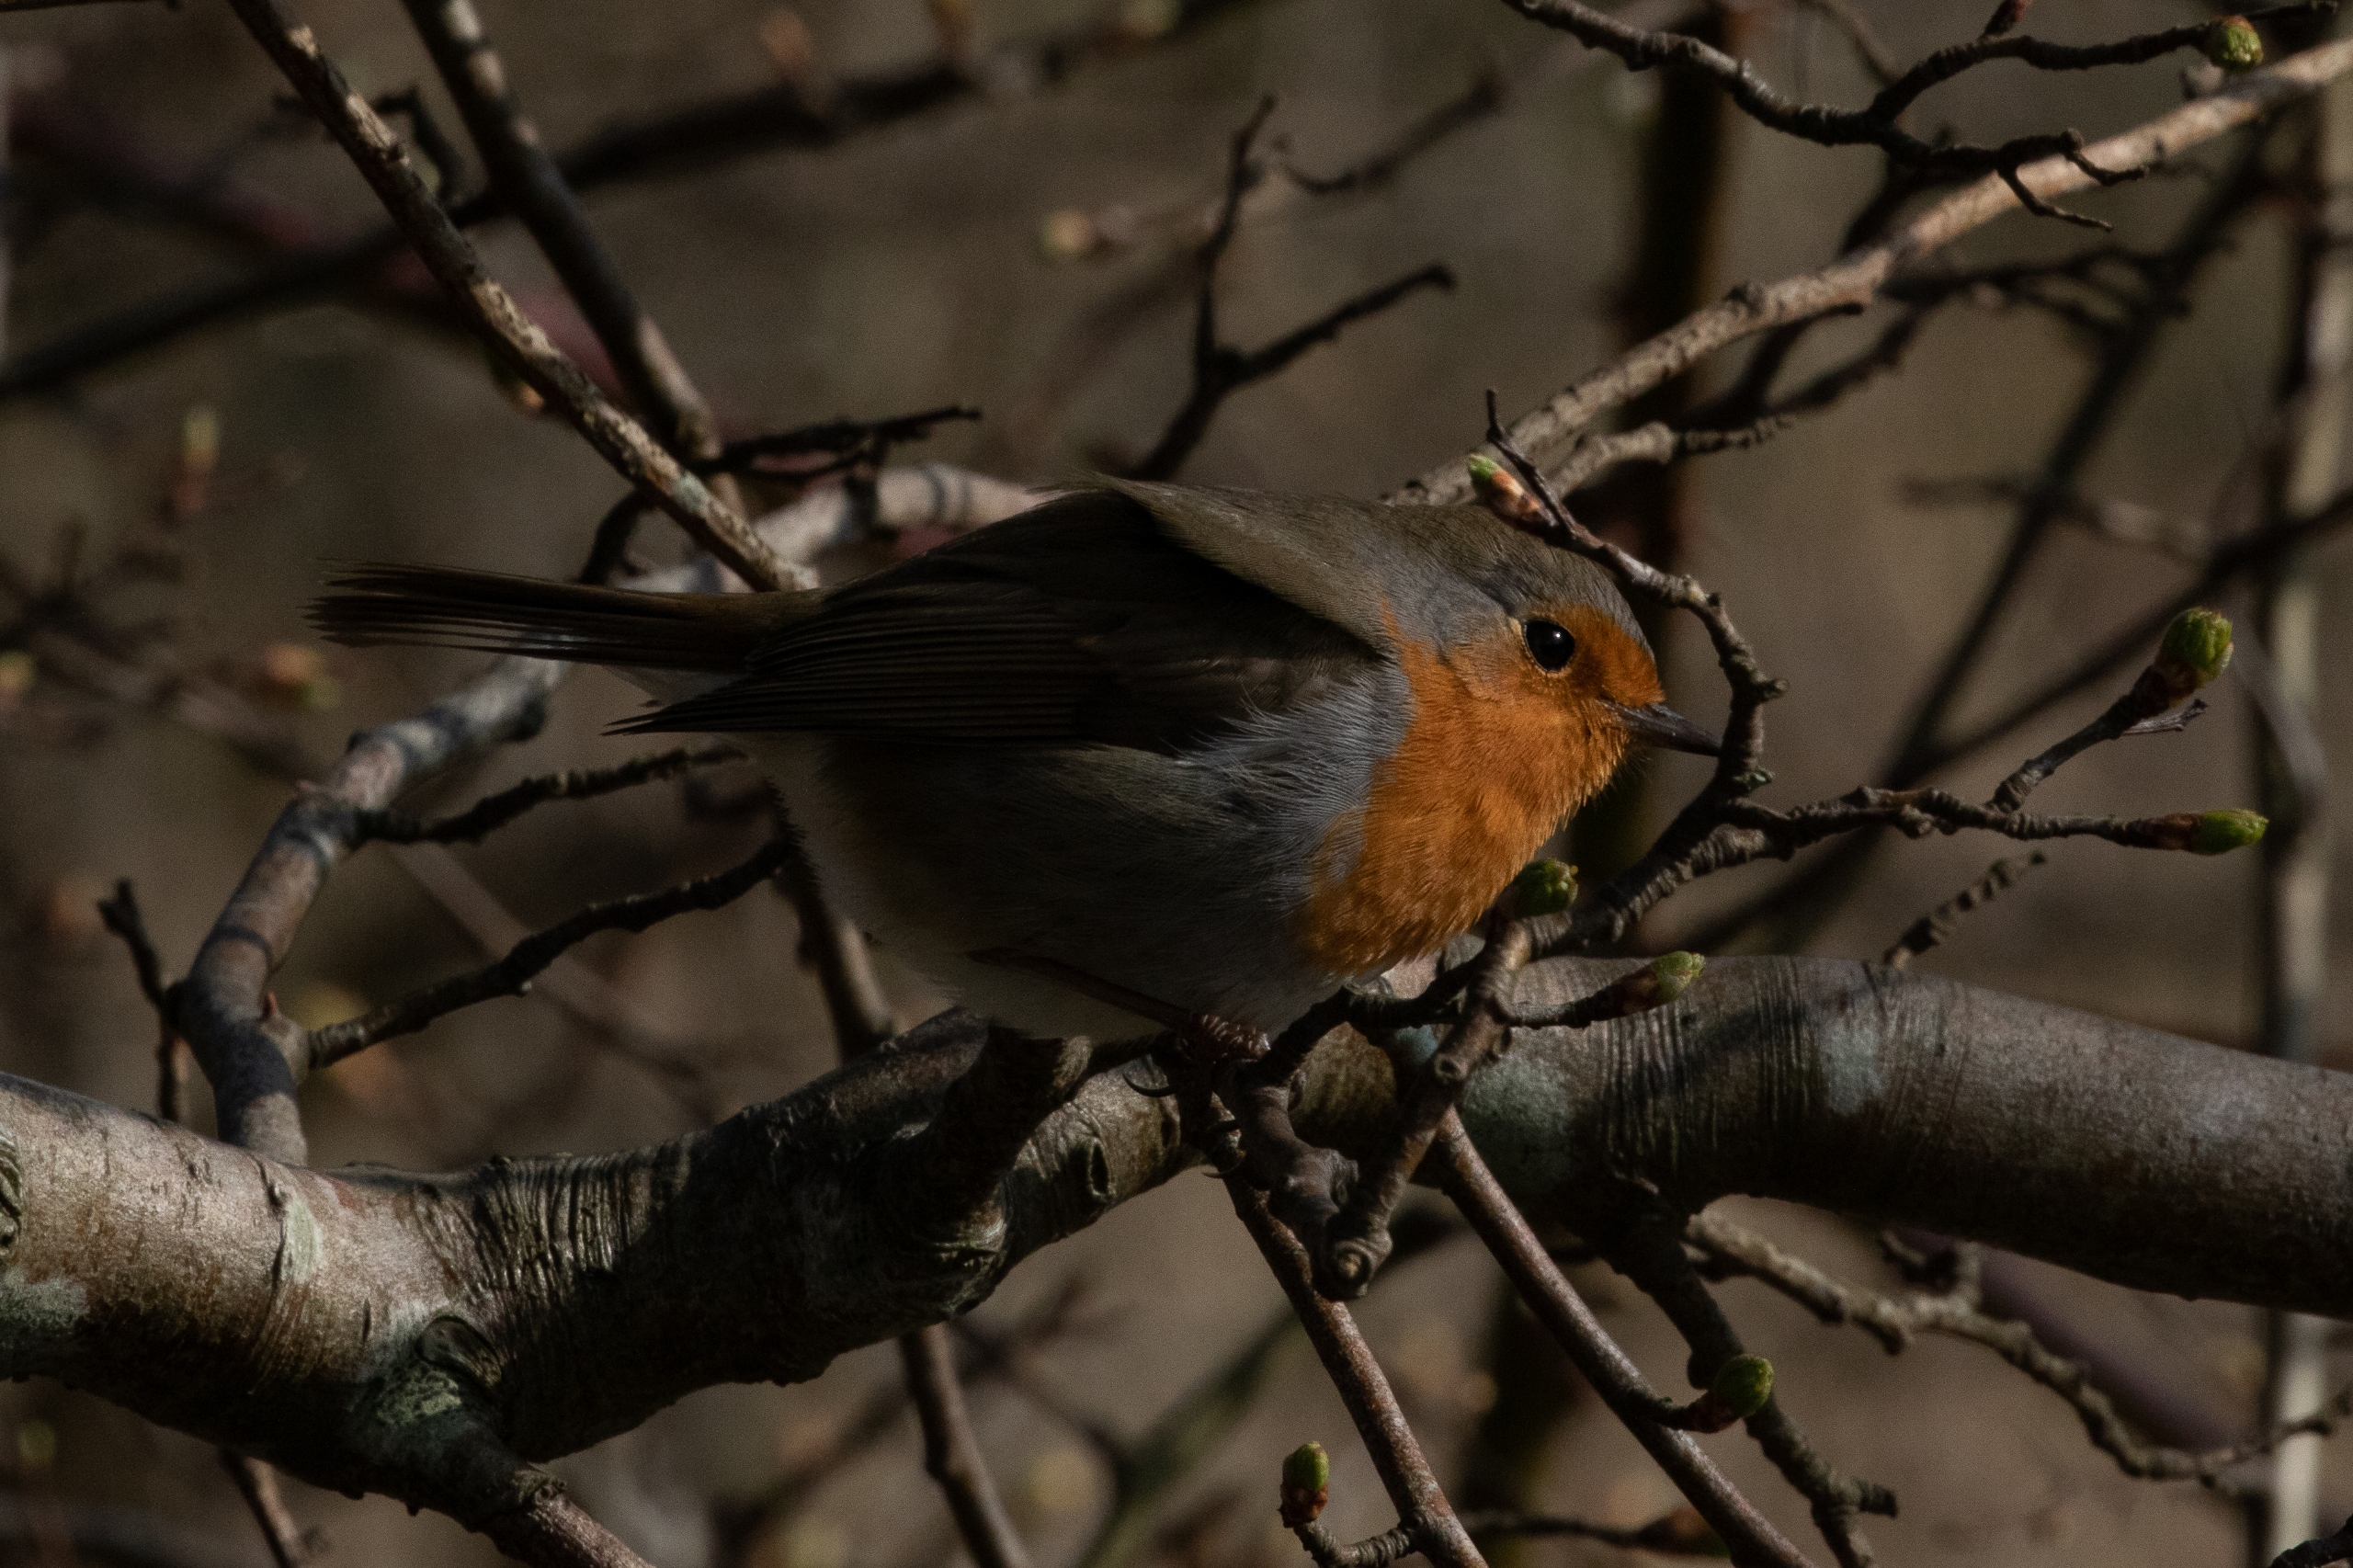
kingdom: Animalia
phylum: Chordata
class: Aves
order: Passeriformes
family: Muscicapidae
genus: Erithacus
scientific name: Erithacus rubecula
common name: Rødhals/rødkælk
